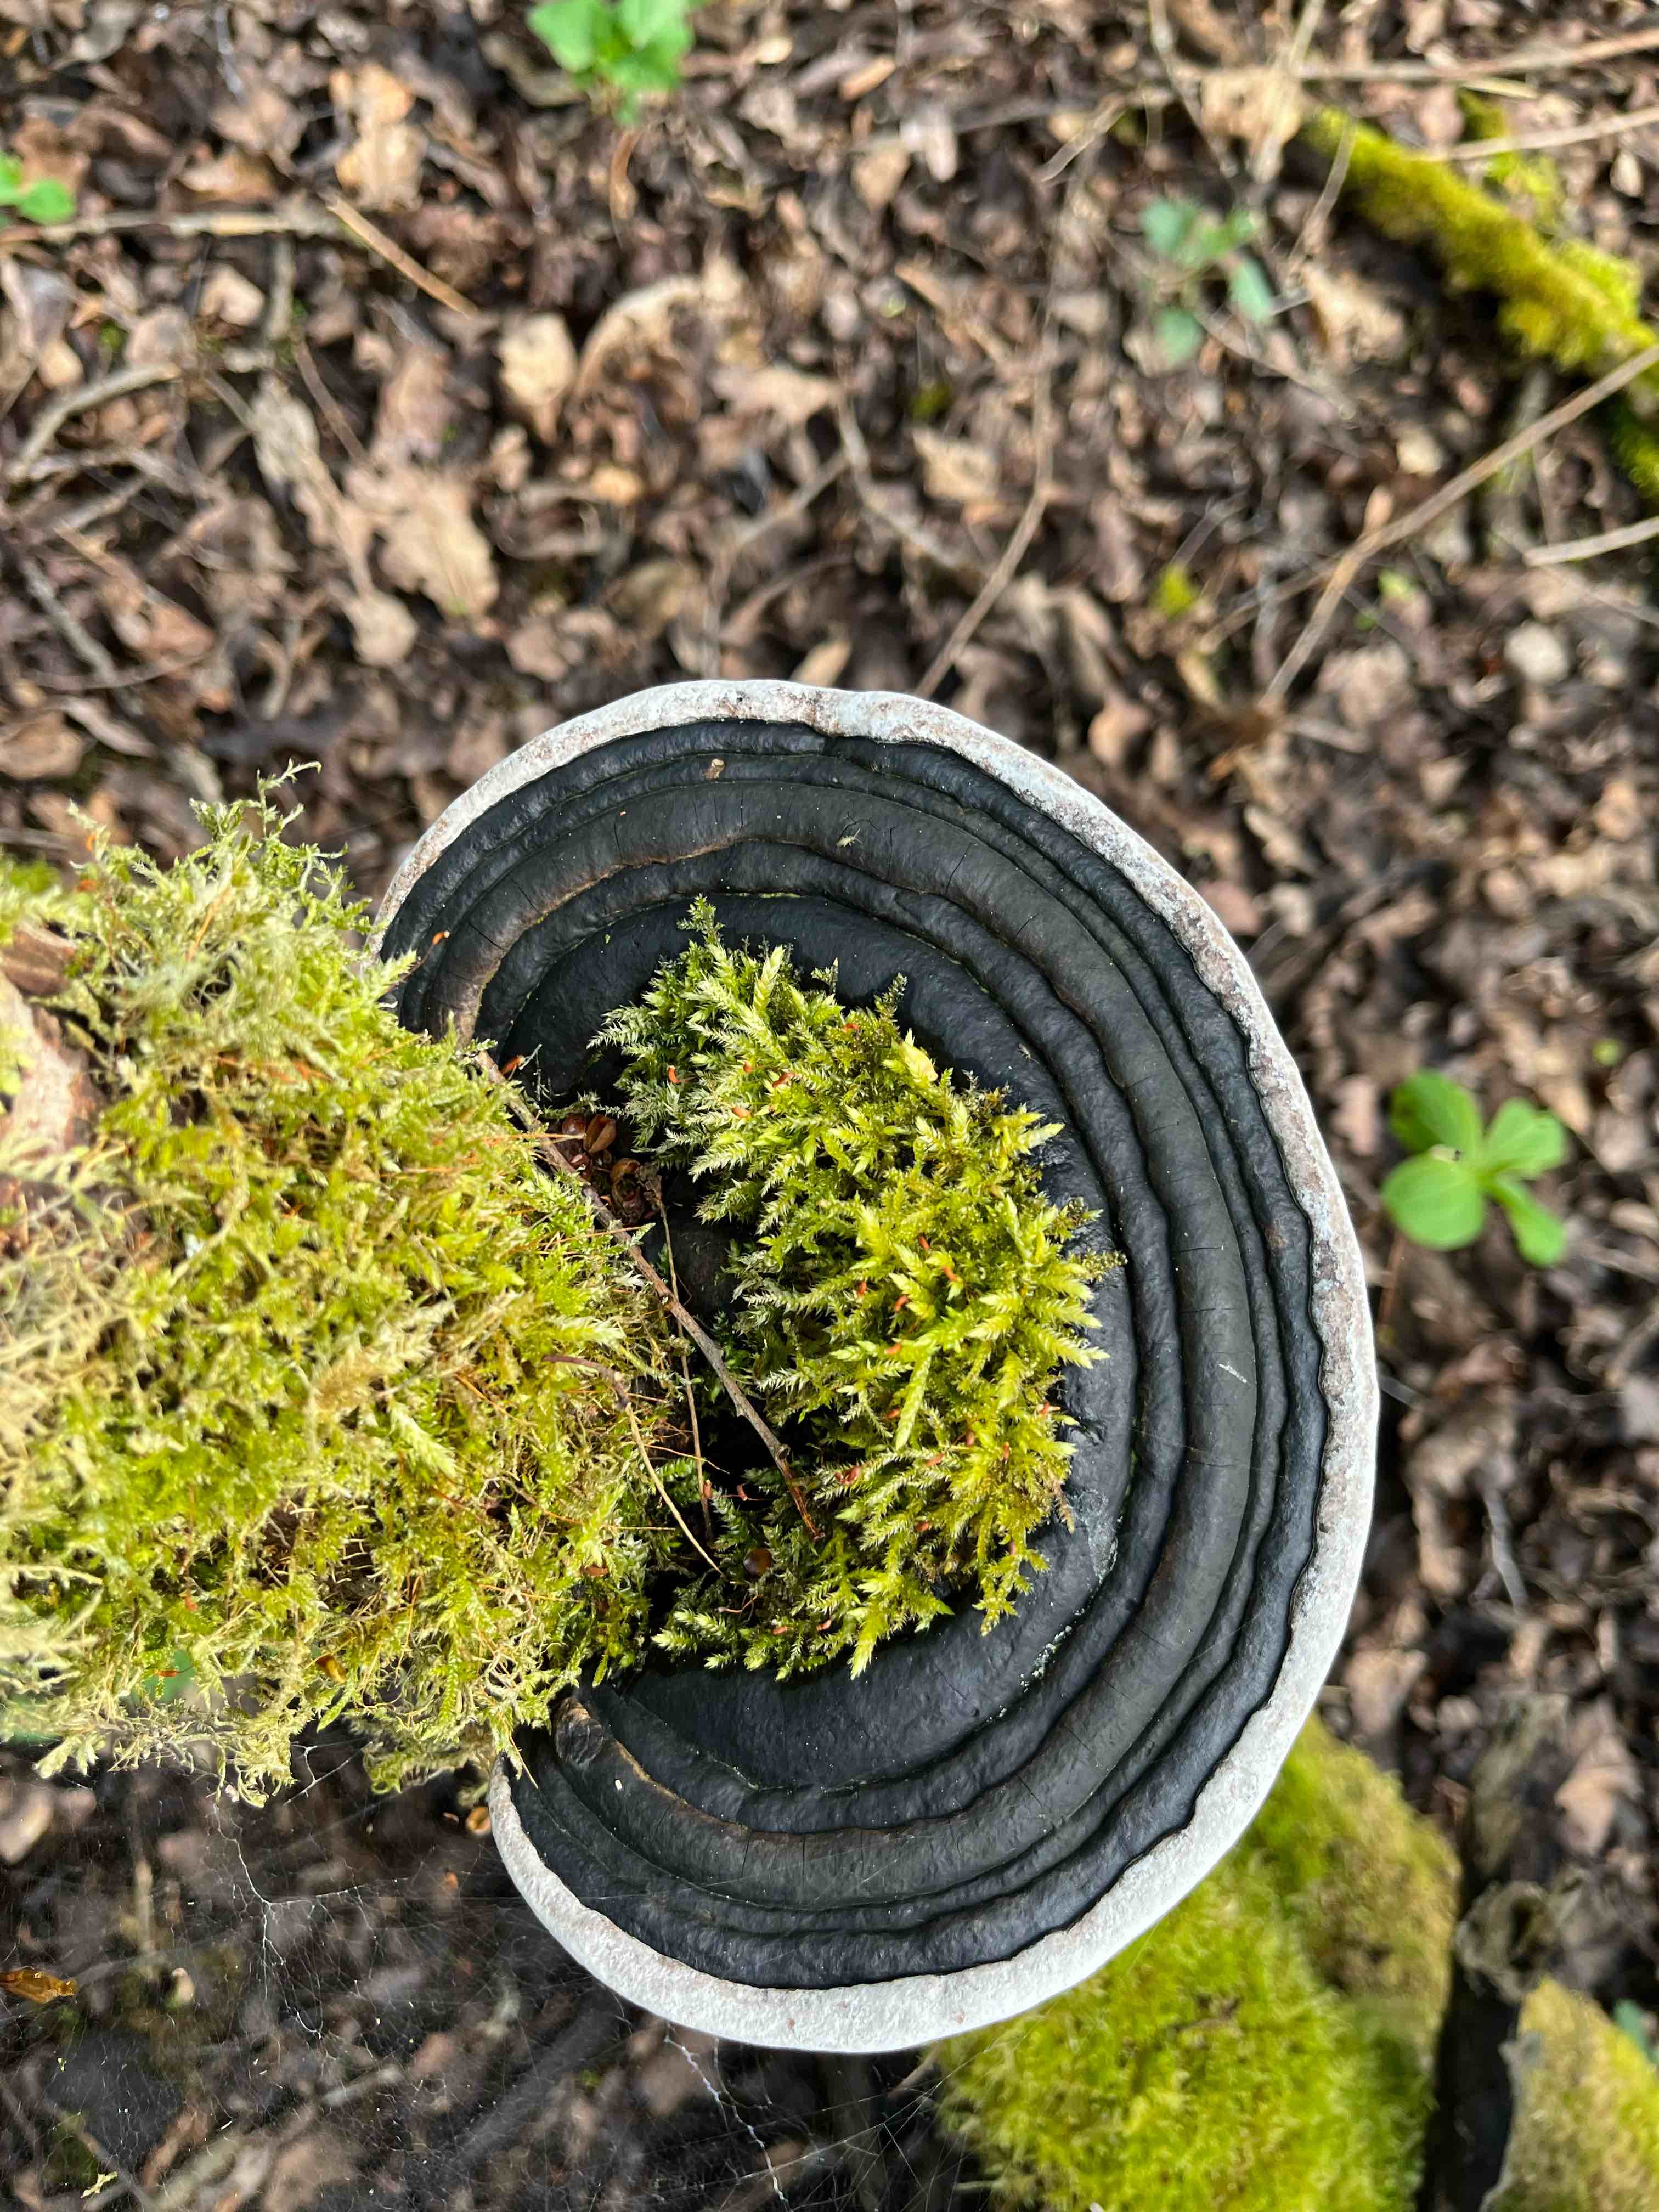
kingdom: Fungi
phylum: Basidiomycota
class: Agaricomycetes
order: Hymenochaetales
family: Hymenochaetaceae
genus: Phellinus
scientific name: Phellinus igniarius
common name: almindelig ildporesvamp
